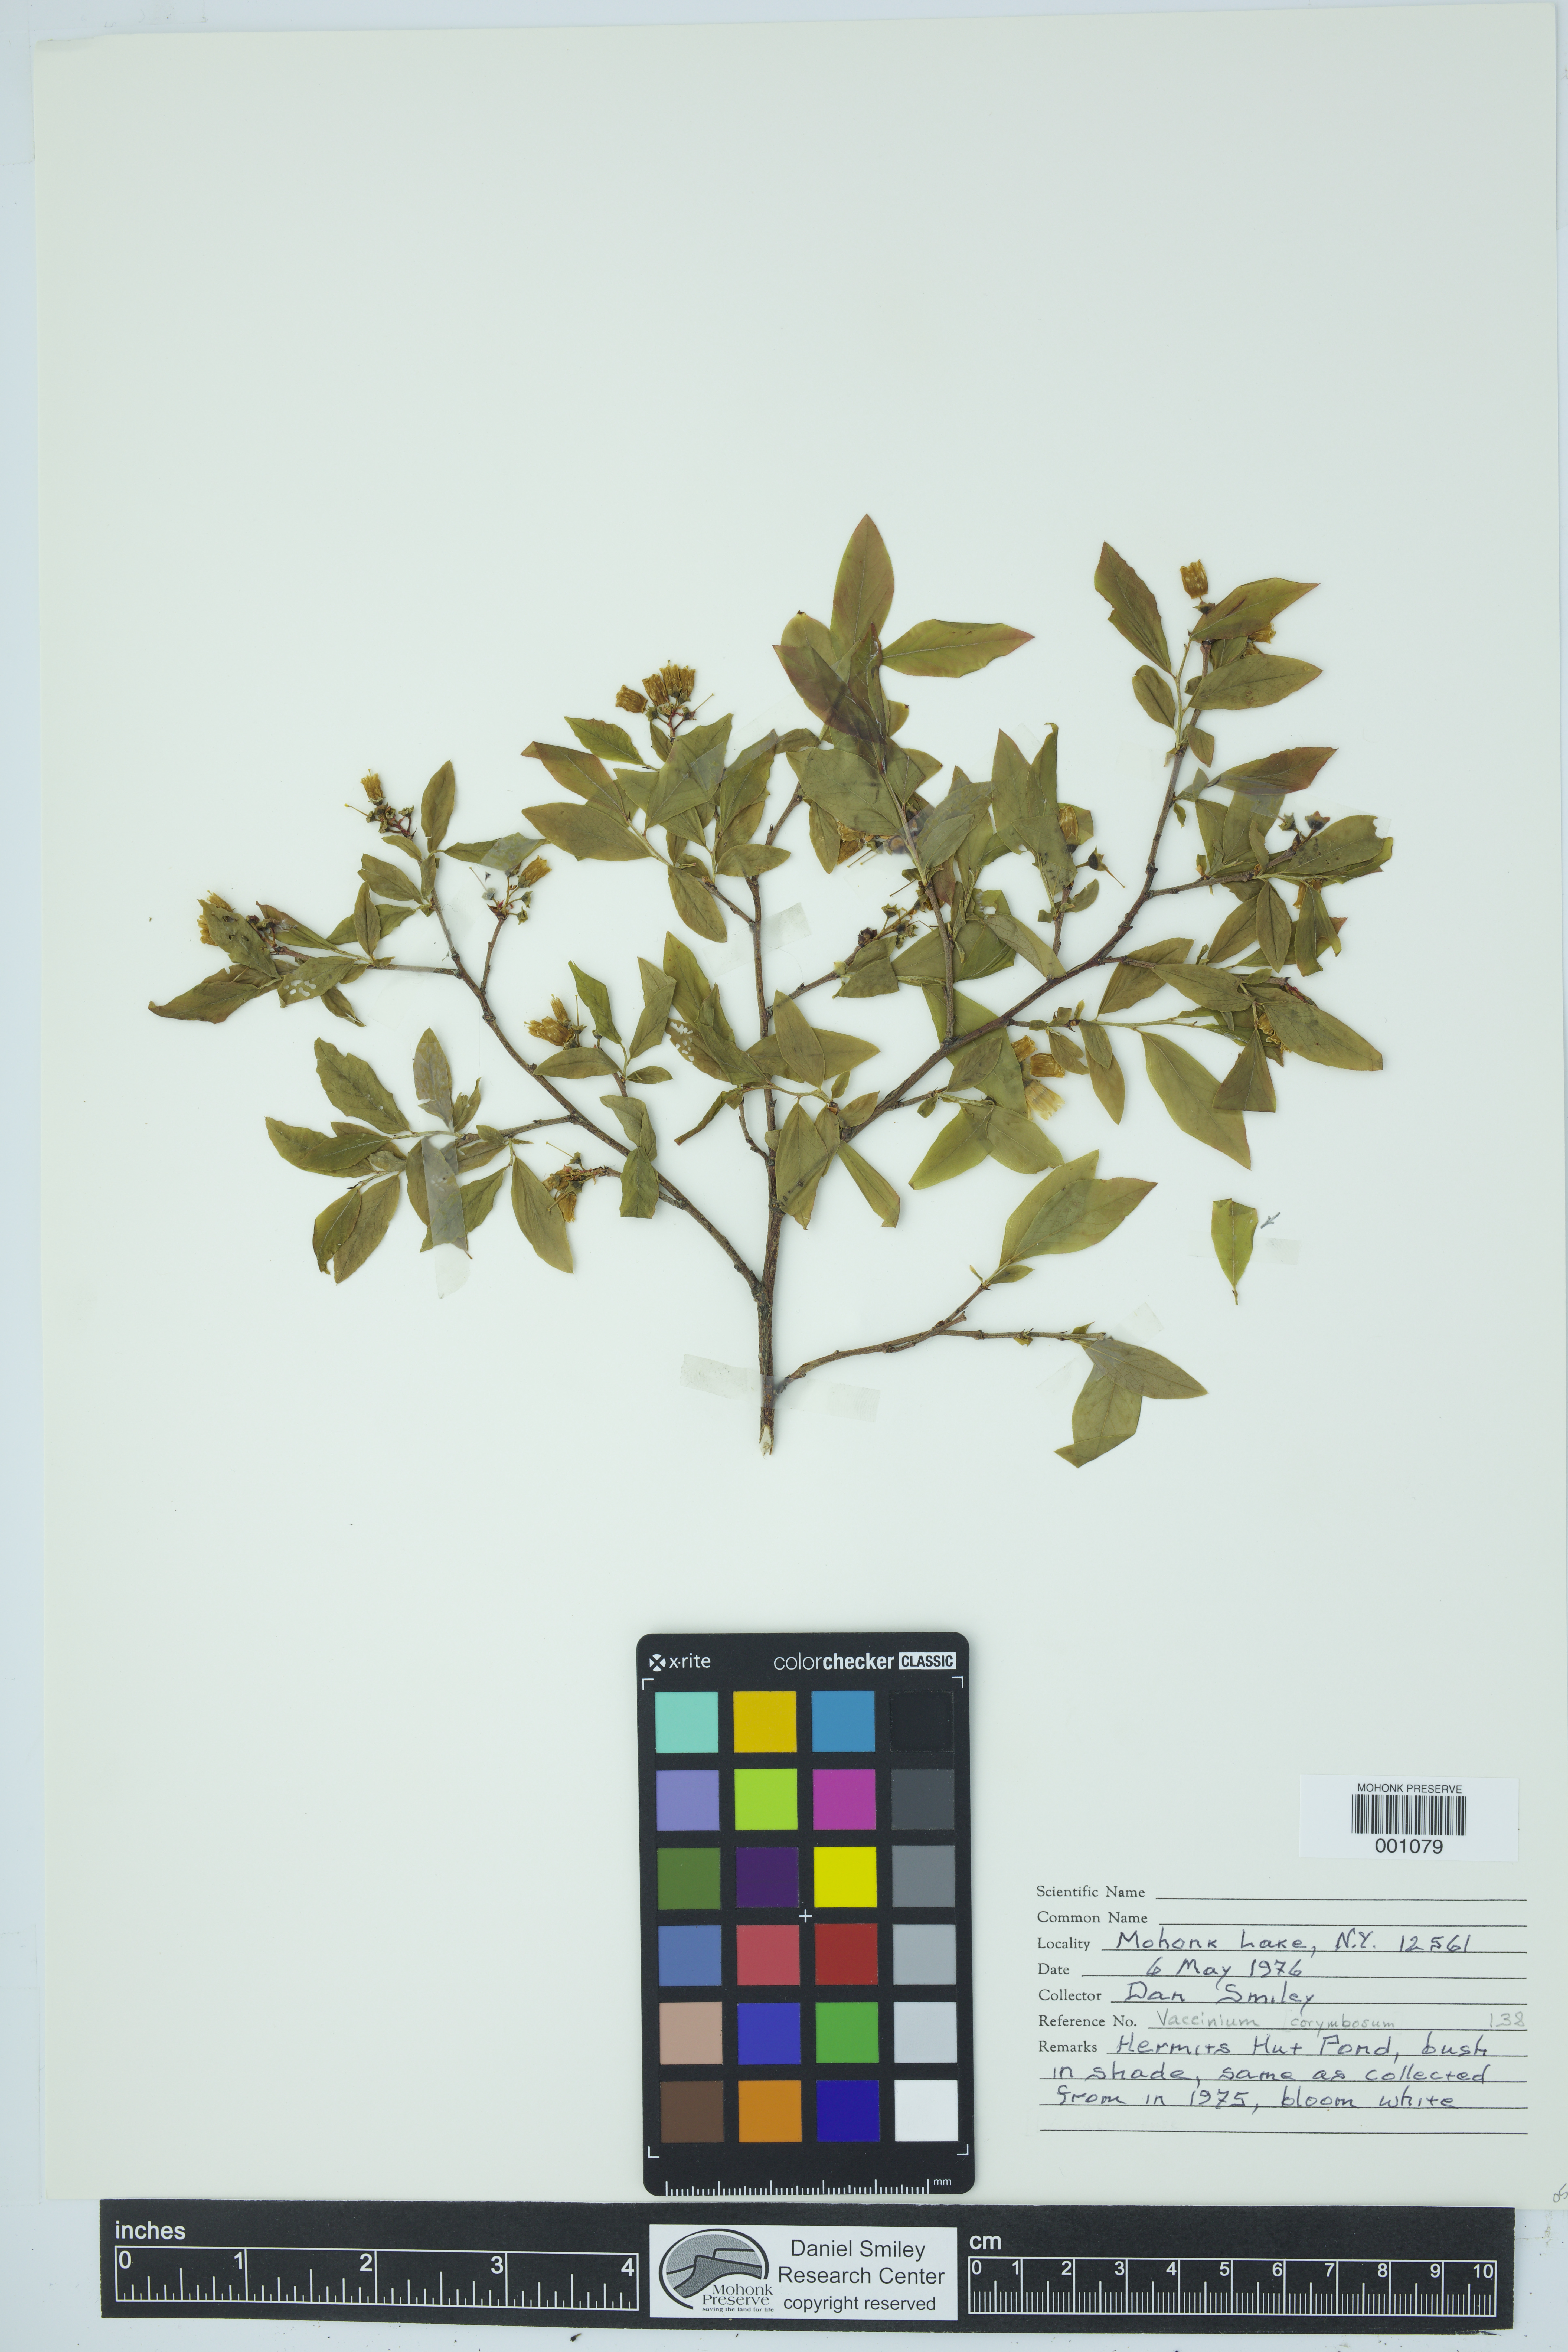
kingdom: Plantae
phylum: Tracheophyta
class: Magnoliopsida
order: Ericales
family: Ericaceae
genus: Vaccinium
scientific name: Vaccinium corymbosum
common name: Blueberry
